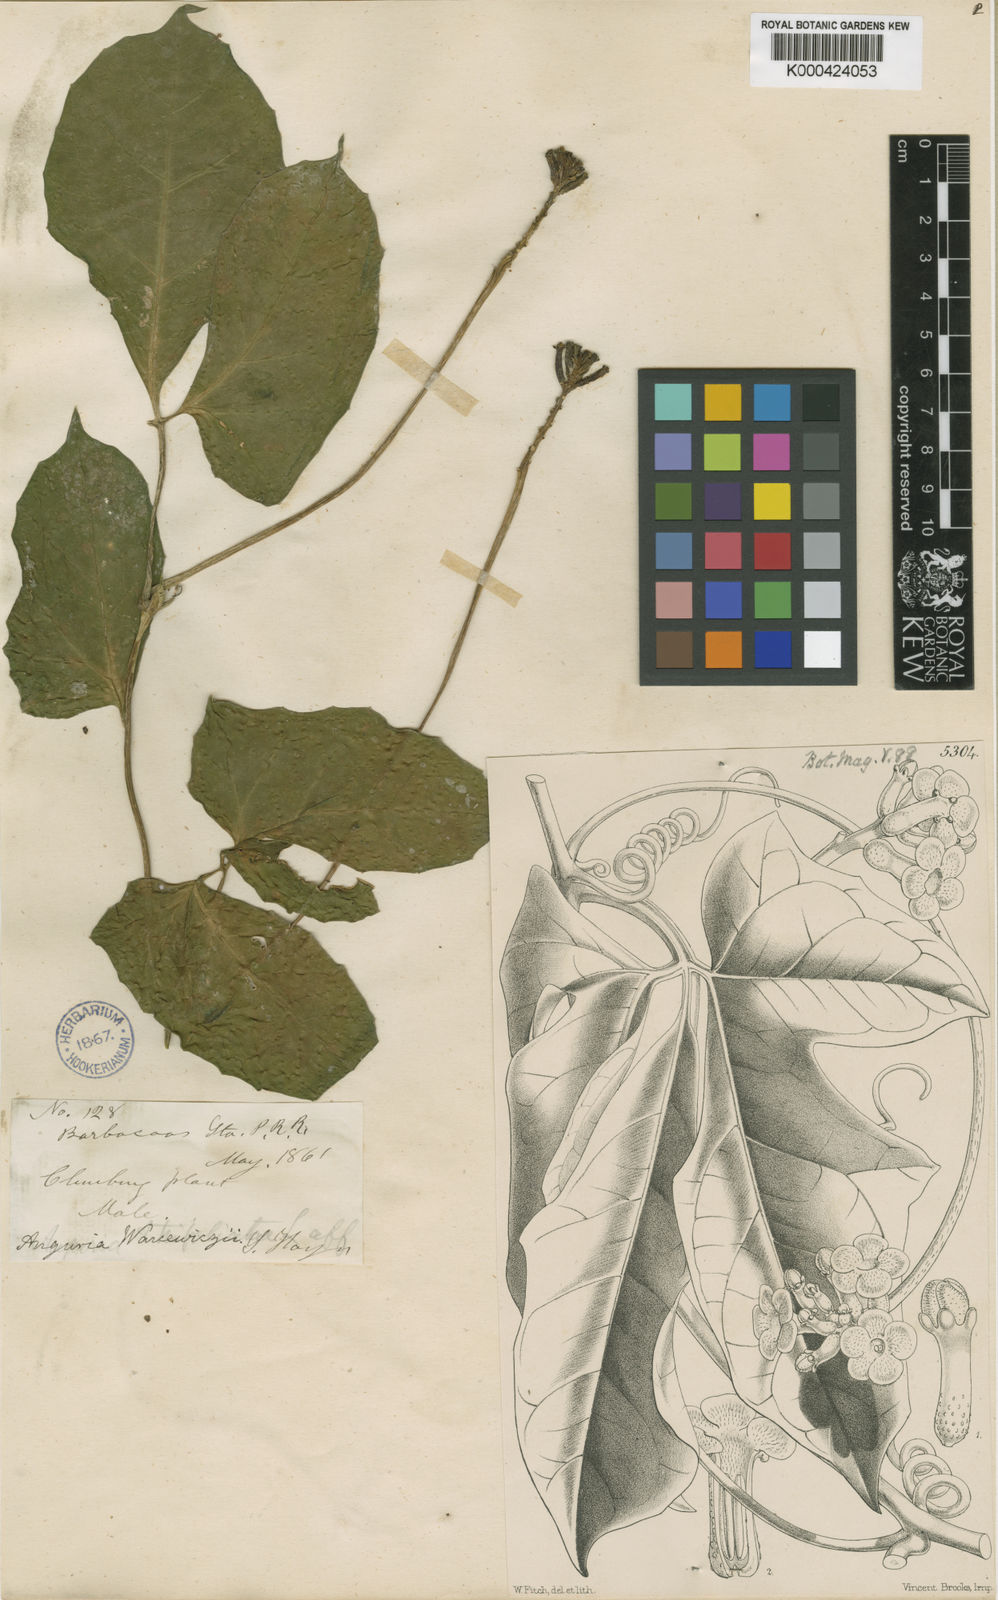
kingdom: Plantae
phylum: Tracheophyta
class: Magnoliopsida
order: Cucurbitales
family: Cucurbitaceae
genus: Psiguria
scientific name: Psiguria warscewiczii
